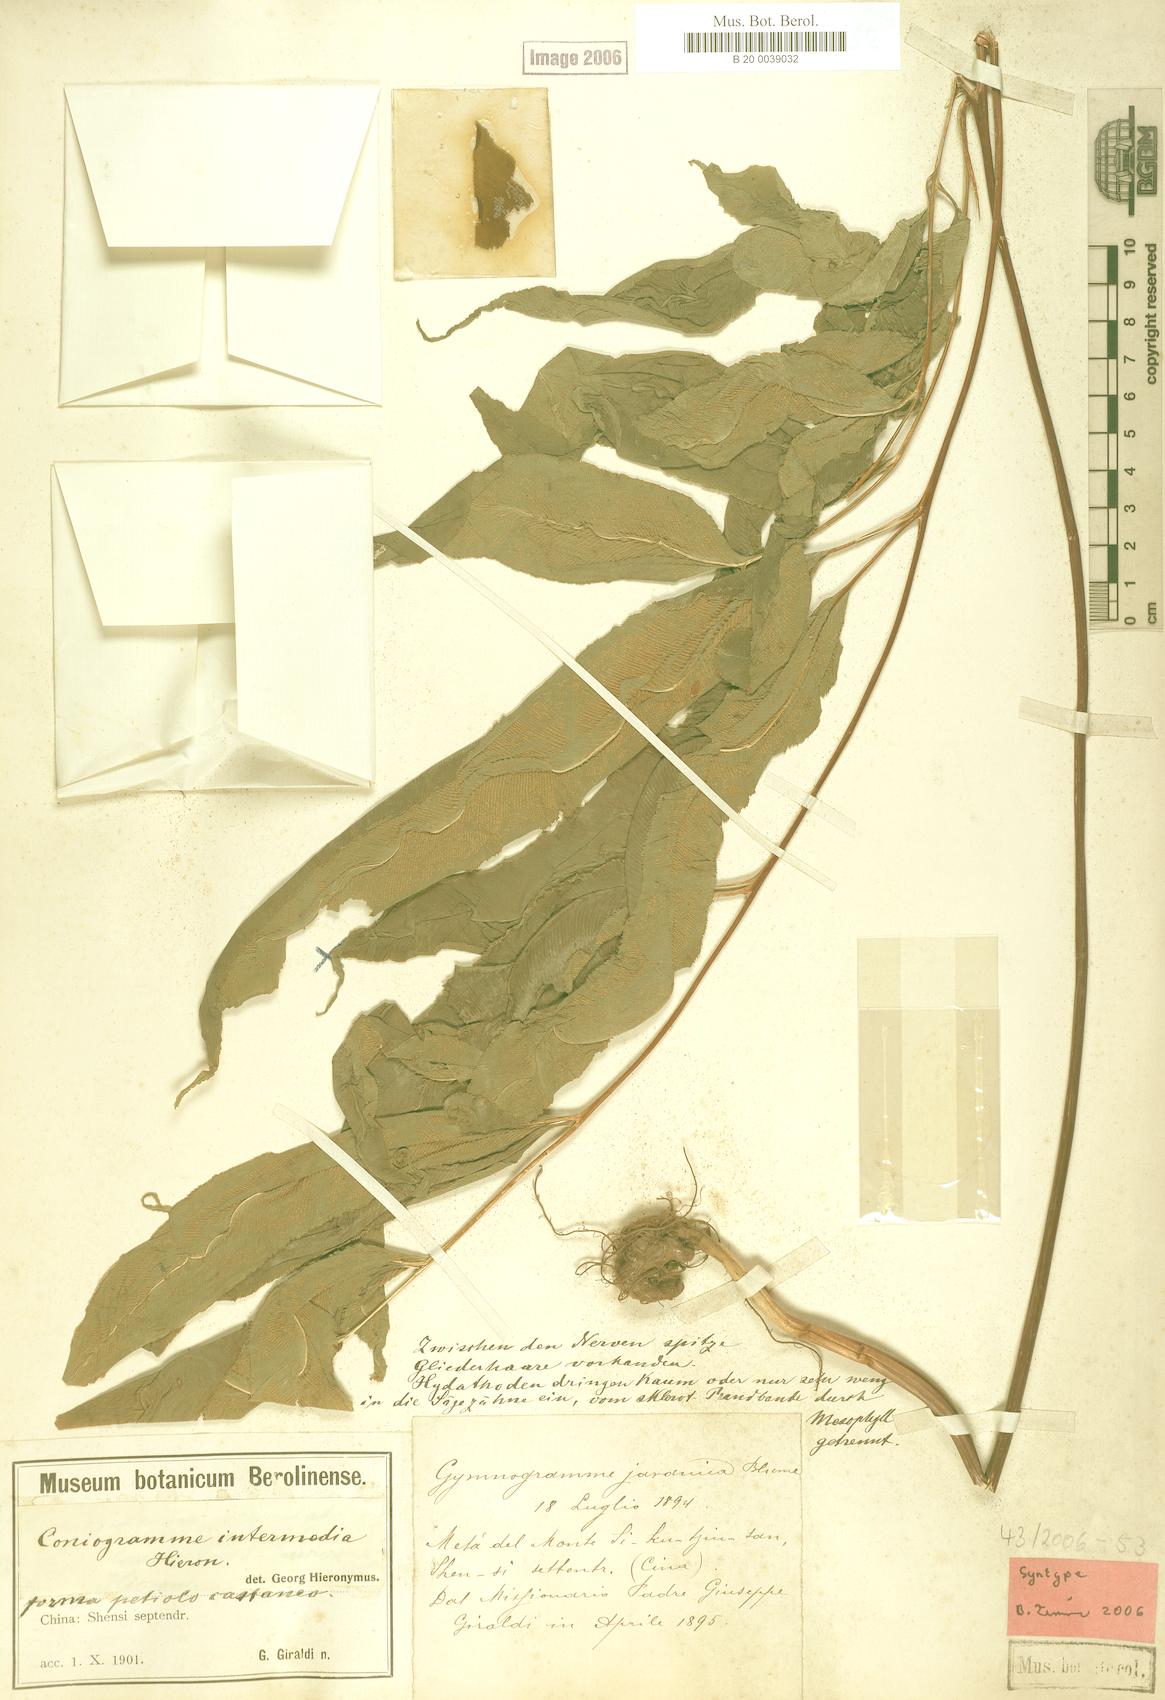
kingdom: Plantae
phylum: Tracheophyta
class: Polypodiopsida
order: Polypodiales
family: Pteridaceae
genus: Coniogramme
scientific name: Coniogramme intermedia
